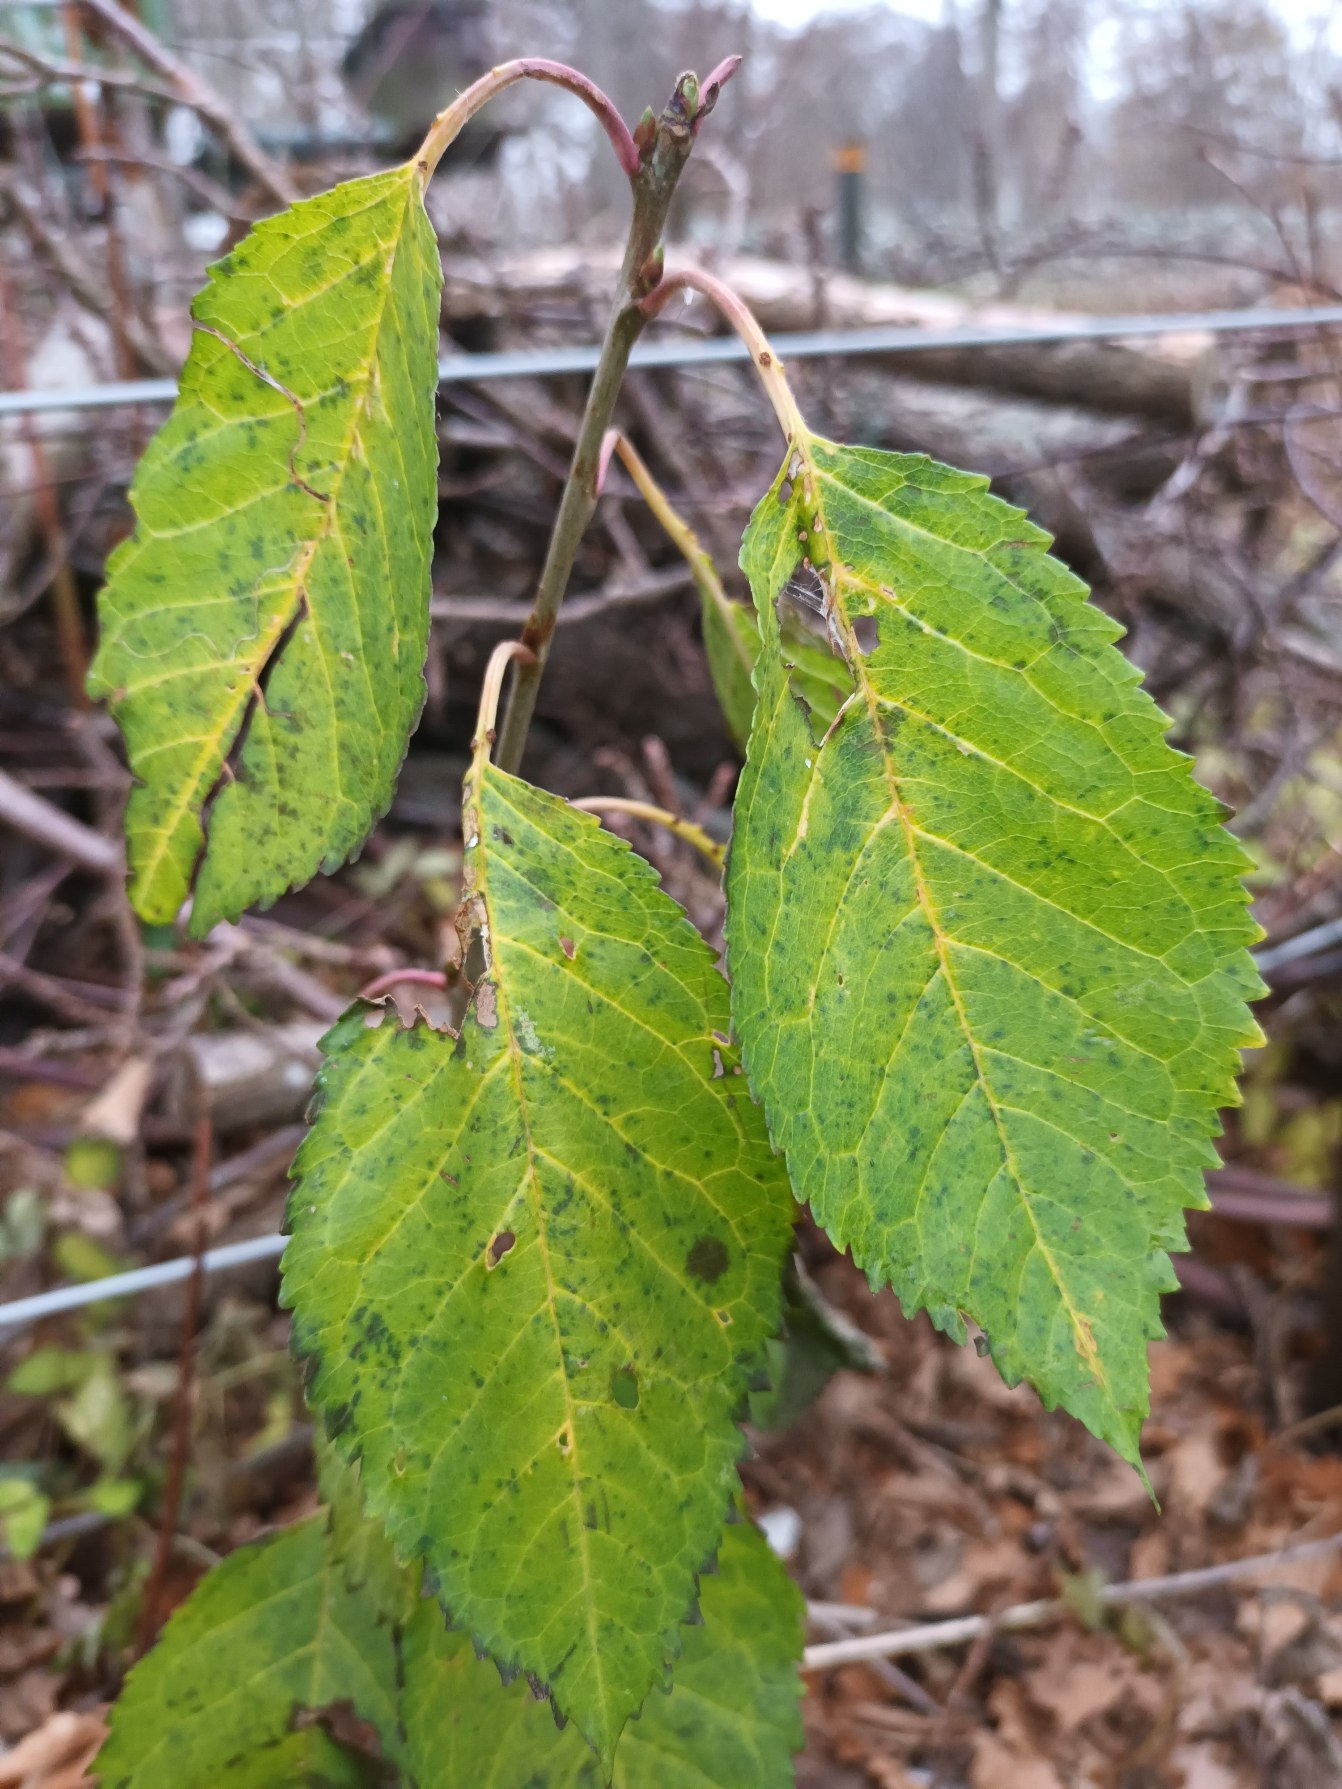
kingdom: Plantae
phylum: Tracheophyta
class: Magnoliopsida
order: Rosales
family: Rosaceae
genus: Prunus
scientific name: Prunus avium
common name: Fugle-kirsebær
